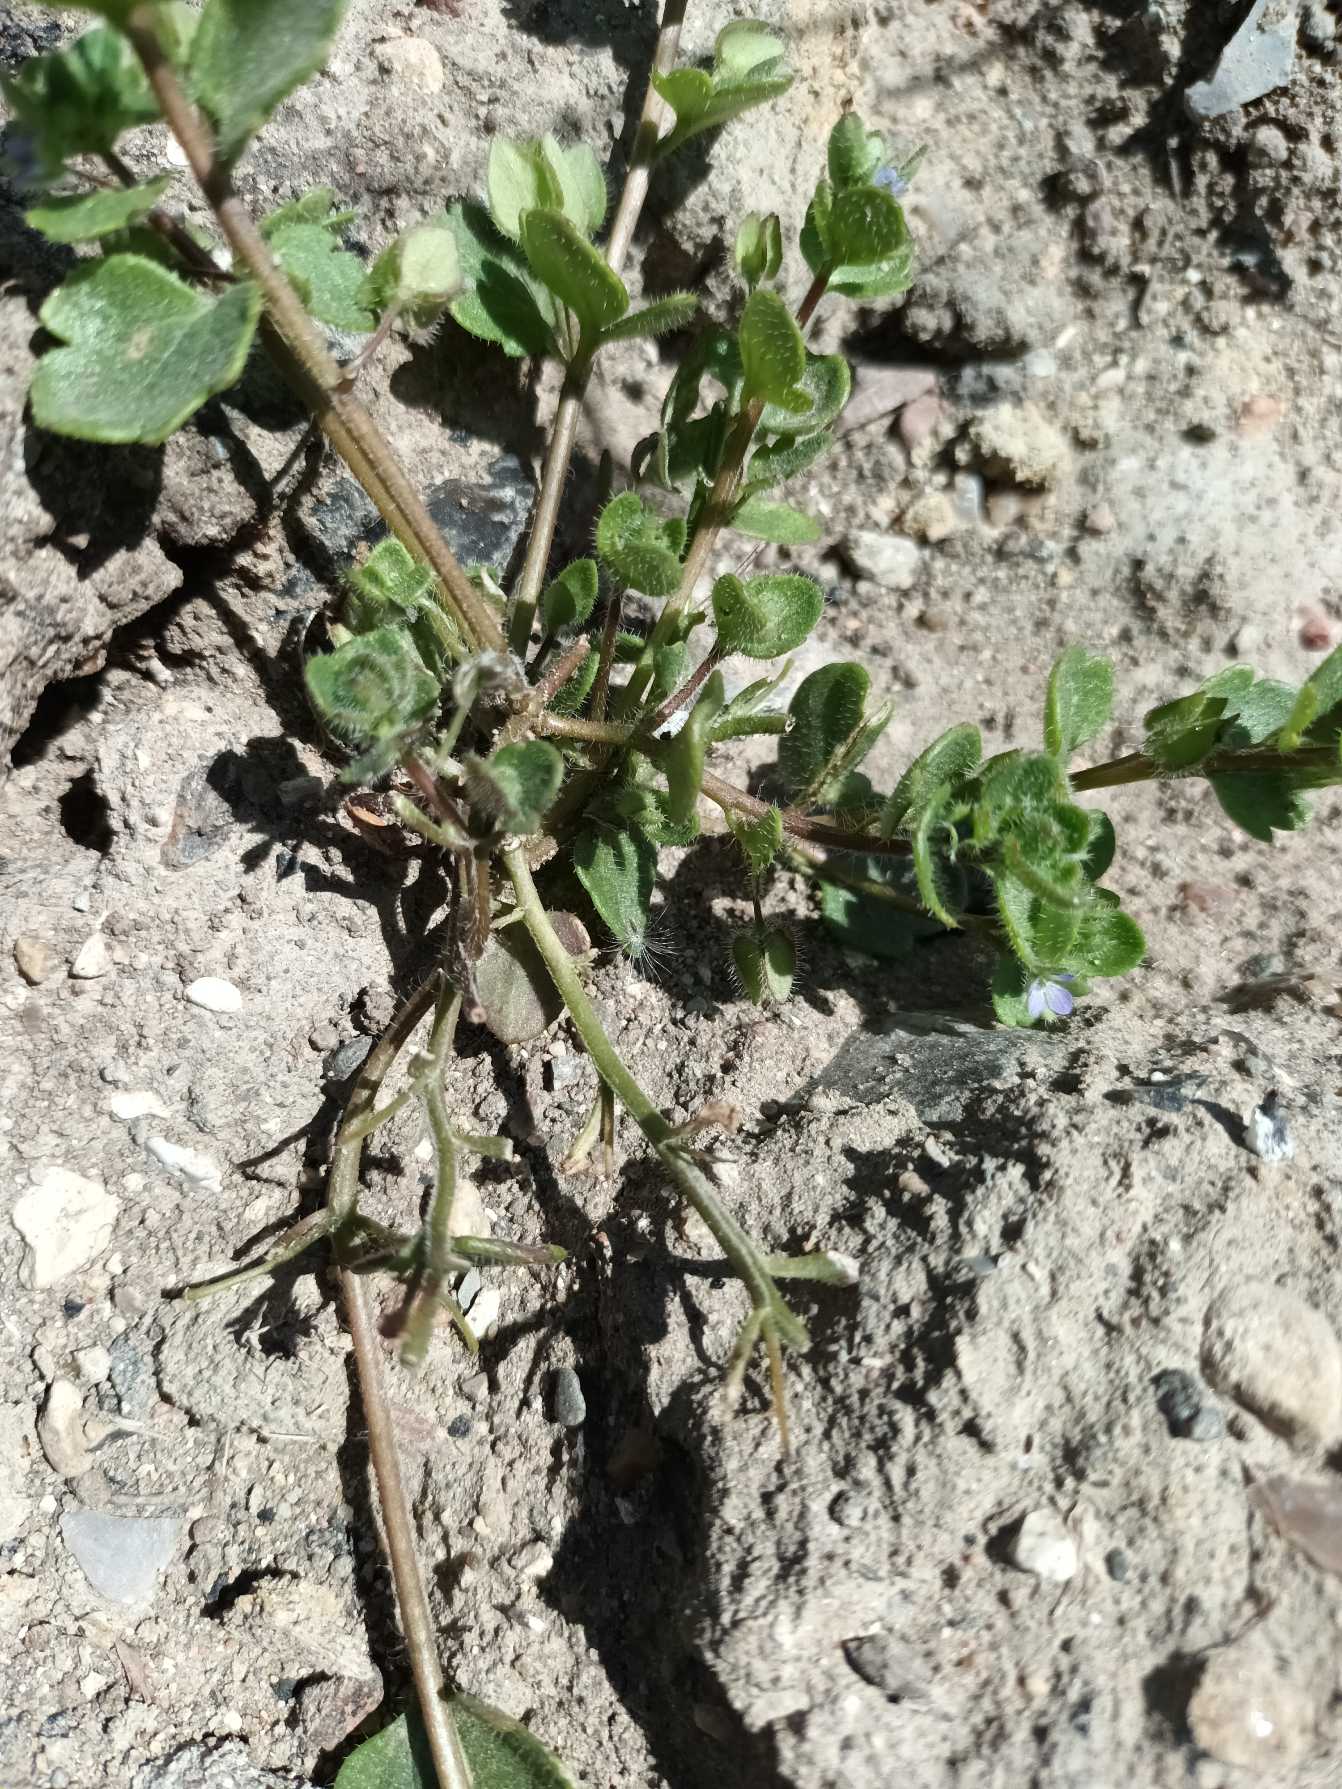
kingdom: Plantae
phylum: Tracheophyta
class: Magnoliopsida
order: Lamiales
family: Plantaginaceae
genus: Veronica
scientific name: Veronica hederifolia
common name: Vedbend-ærenpris (underart)
